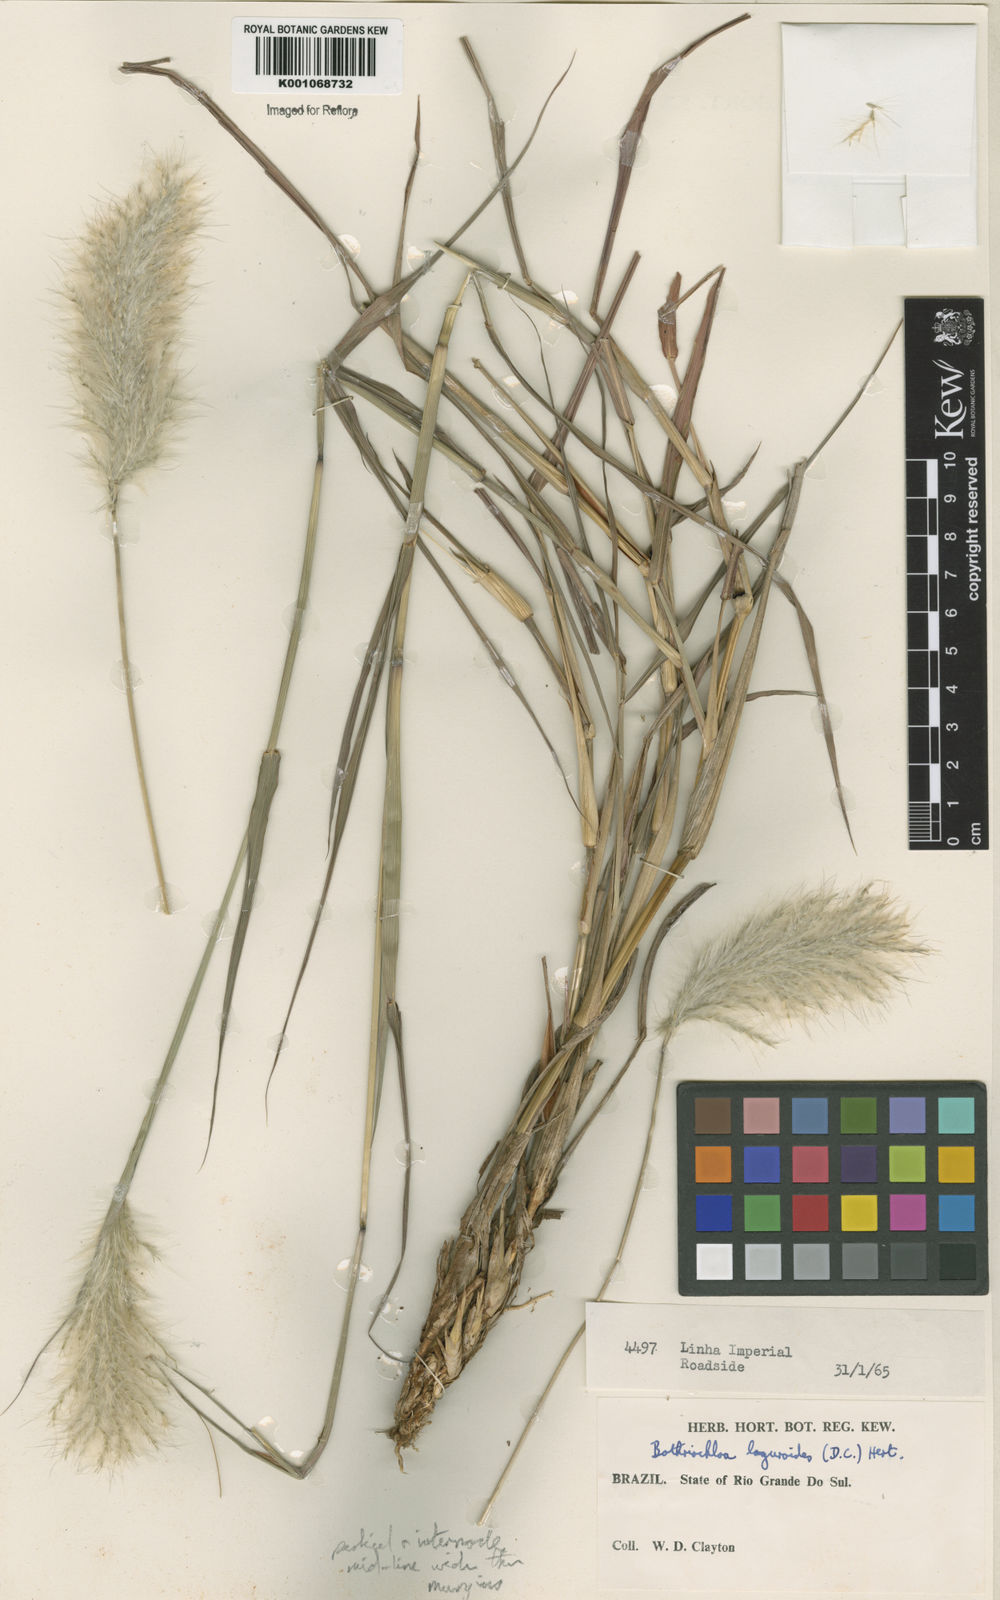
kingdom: Plantae
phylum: Tracheophyta
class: Liliopsida
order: Poales
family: Poaceae
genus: Bothriochloa
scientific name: Bothriochloa laguroides
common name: Silver bluestem
